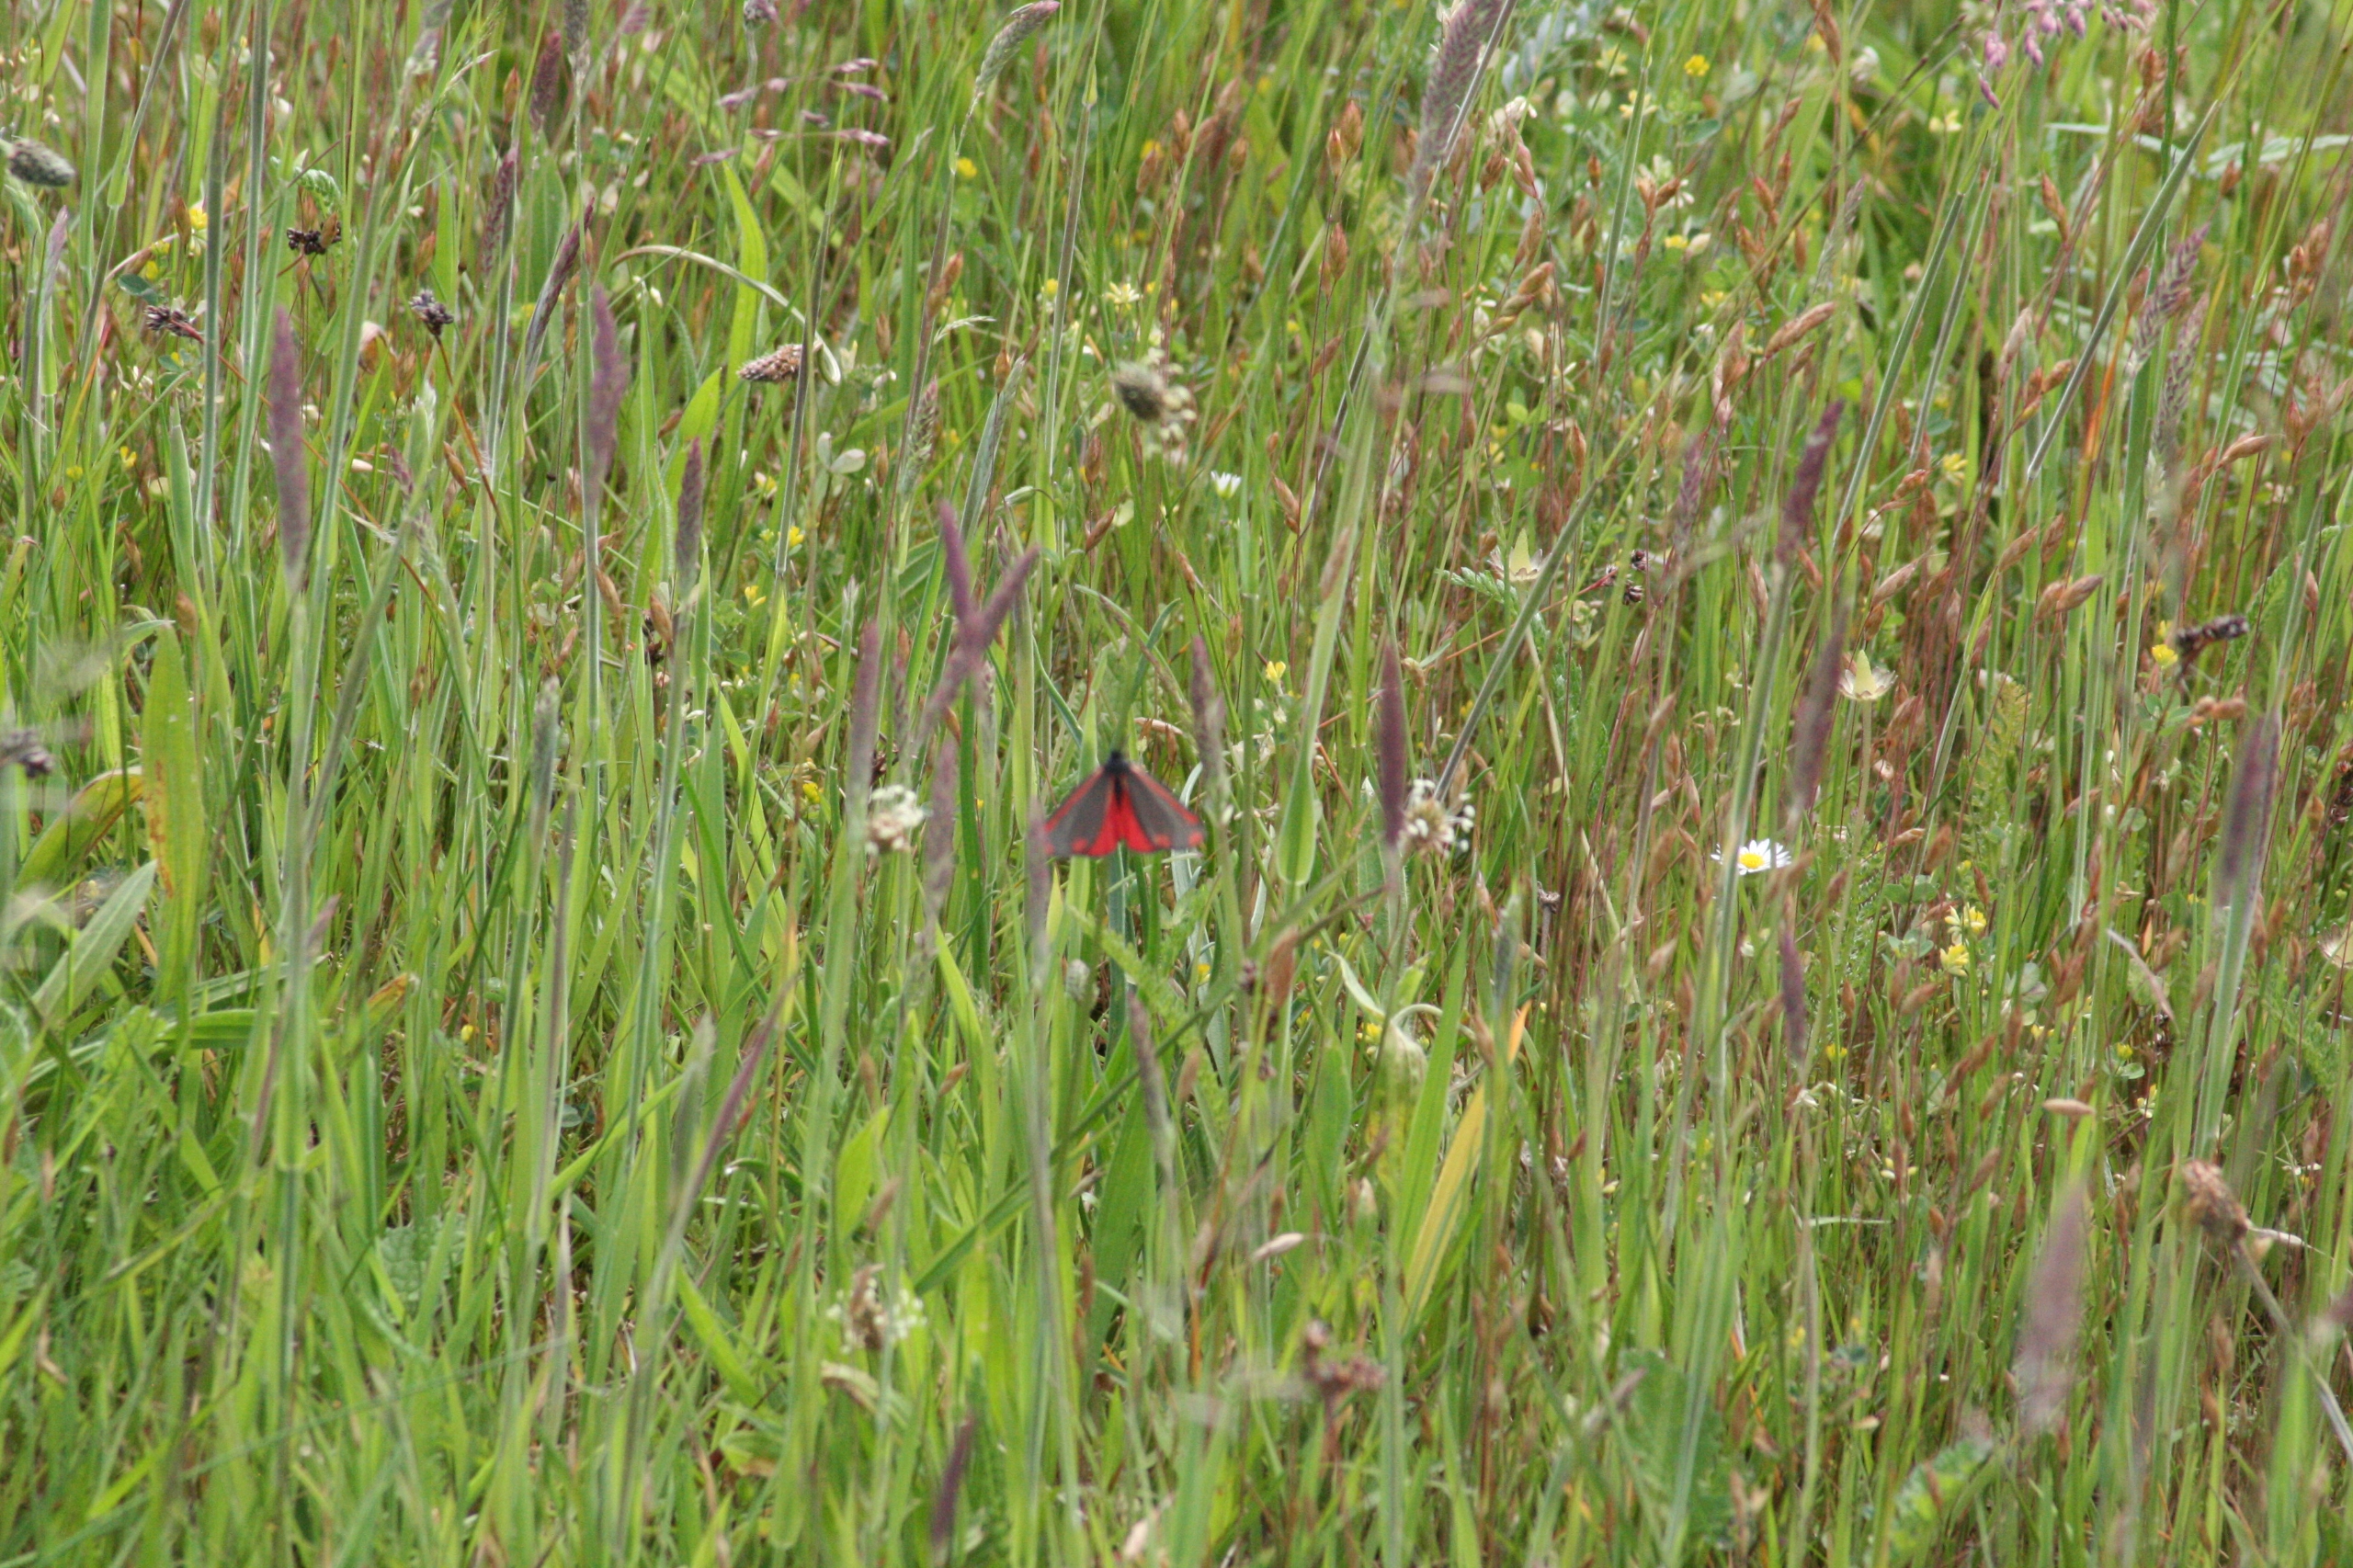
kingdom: Animalia
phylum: Arthropoda
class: Insecta
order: Lepidoptera
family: Erebidae
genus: Tyria
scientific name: Tyria jacobaeae
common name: Blodplet
